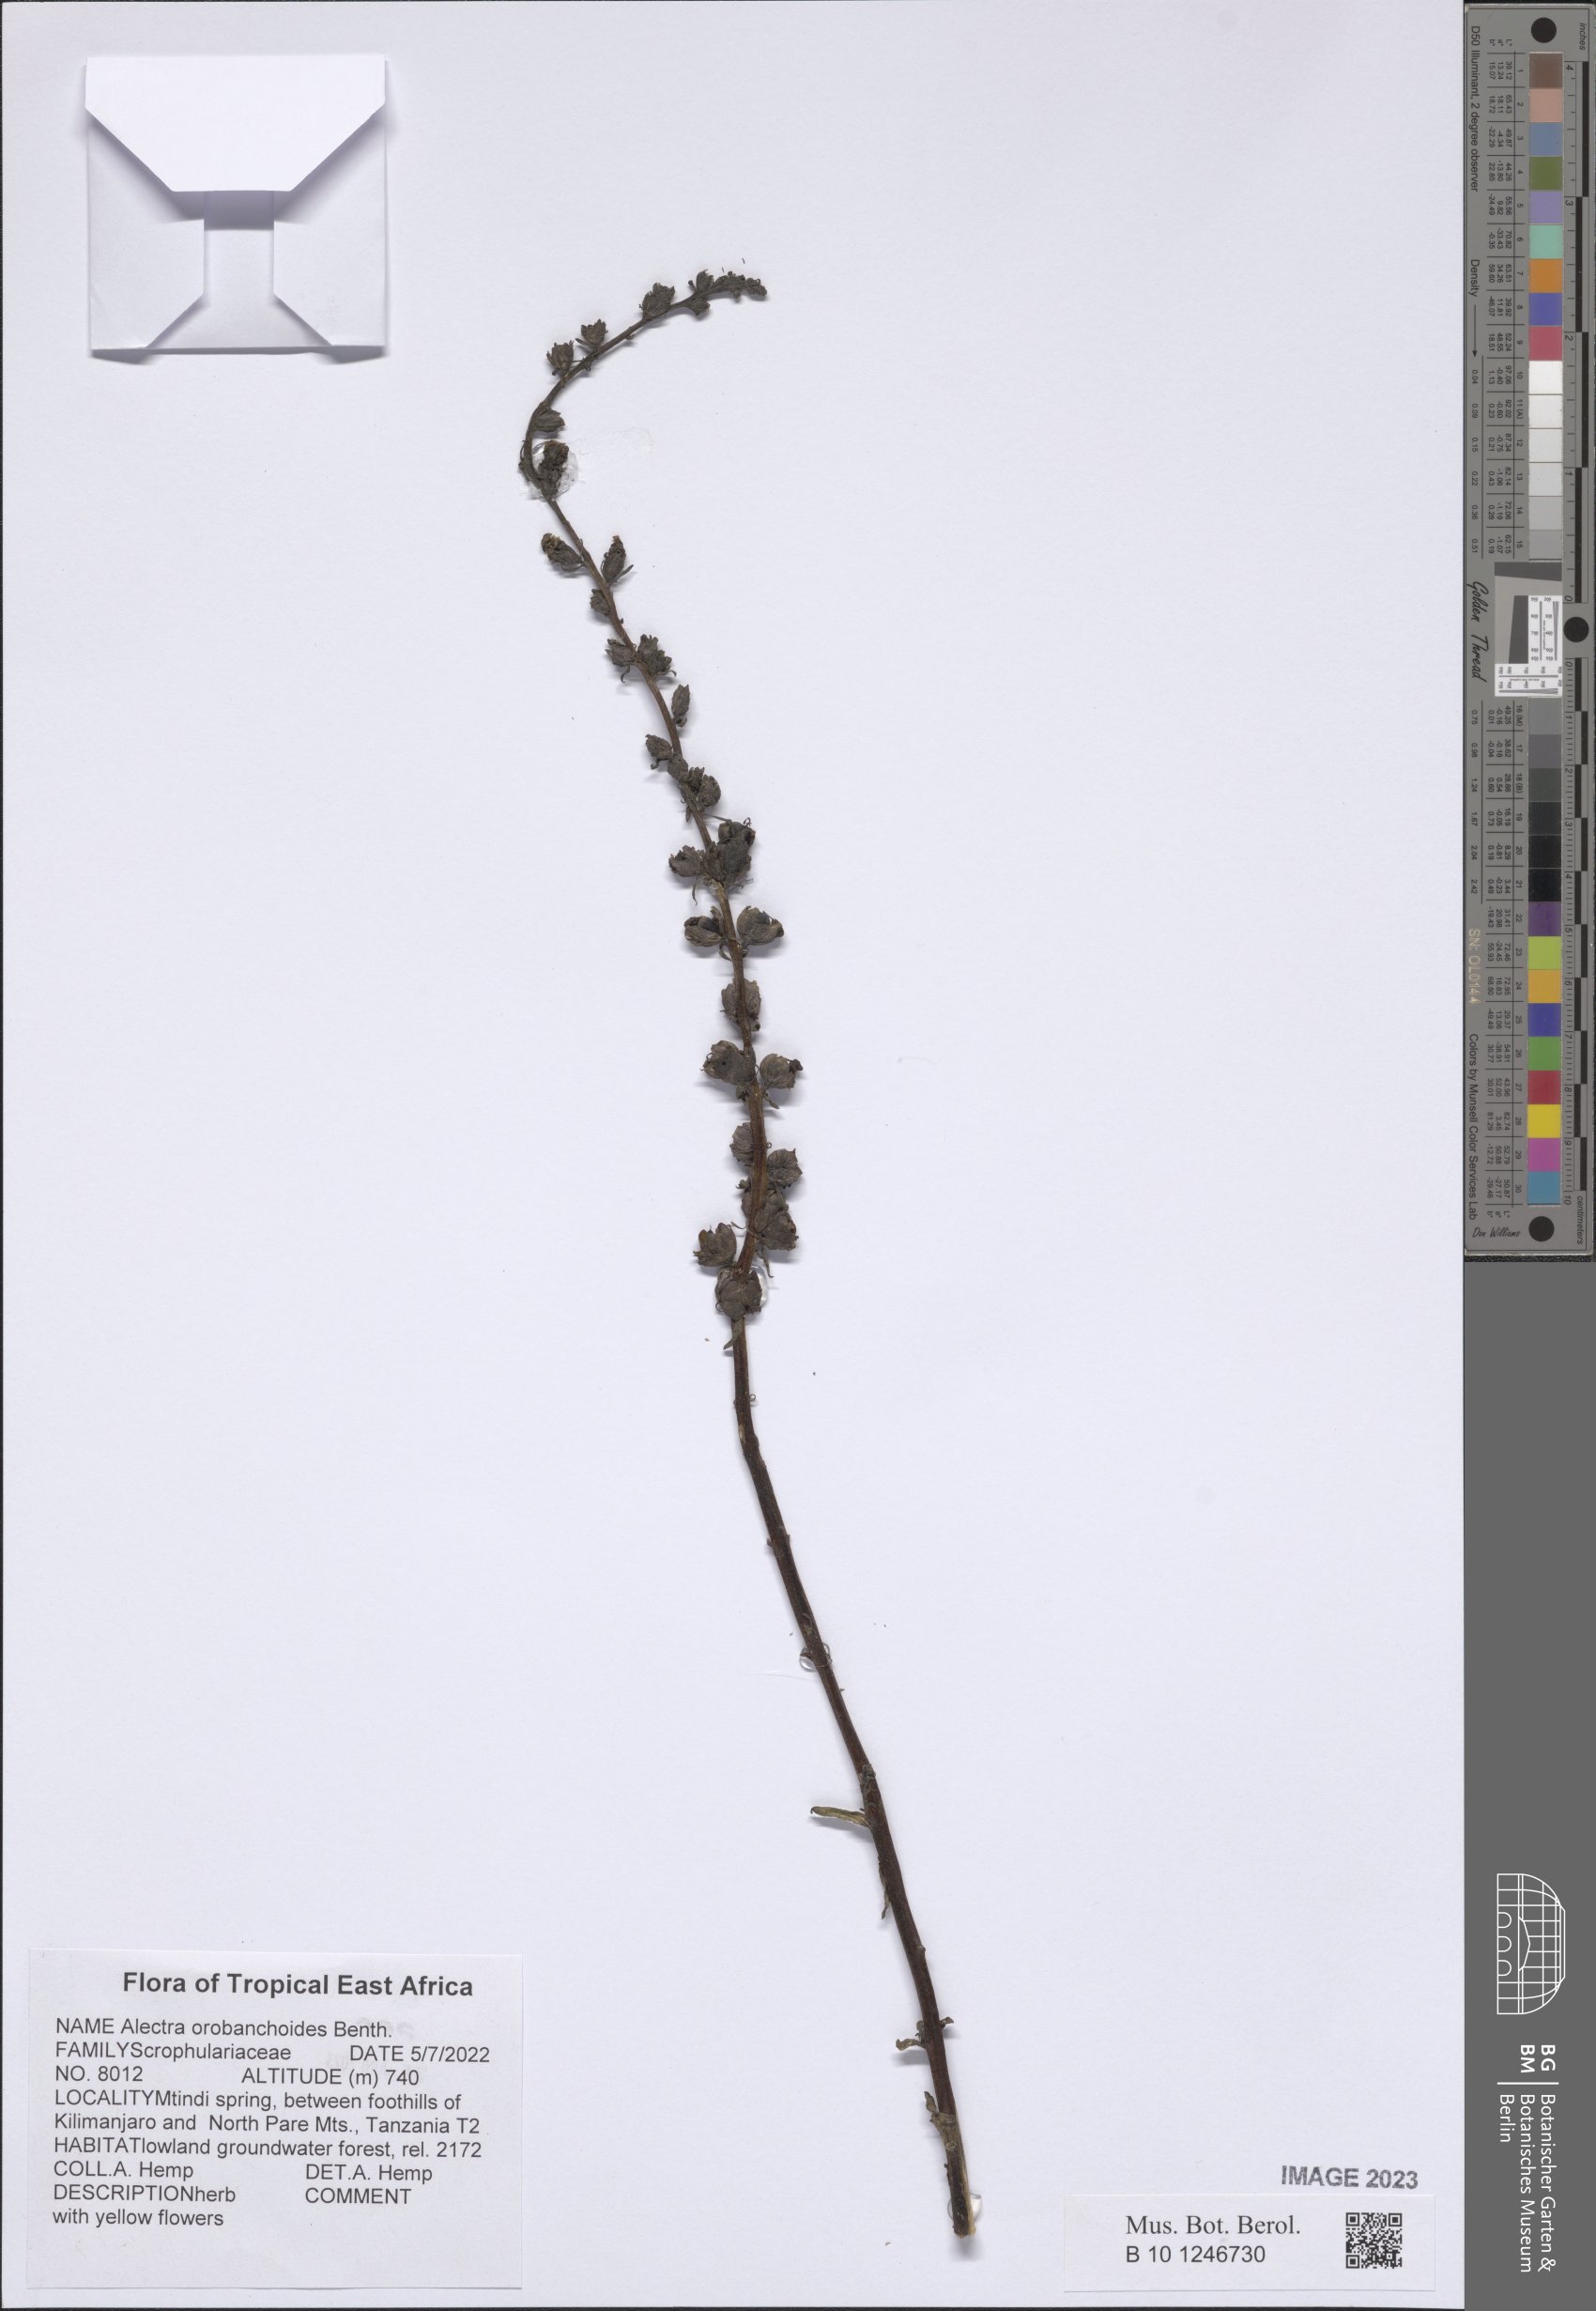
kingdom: Plantae
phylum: Tracheophyta
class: Magnoliopsida
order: Lamiales
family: Orobanchaceae
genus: Alectra
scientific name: Alectra orobanchoides
